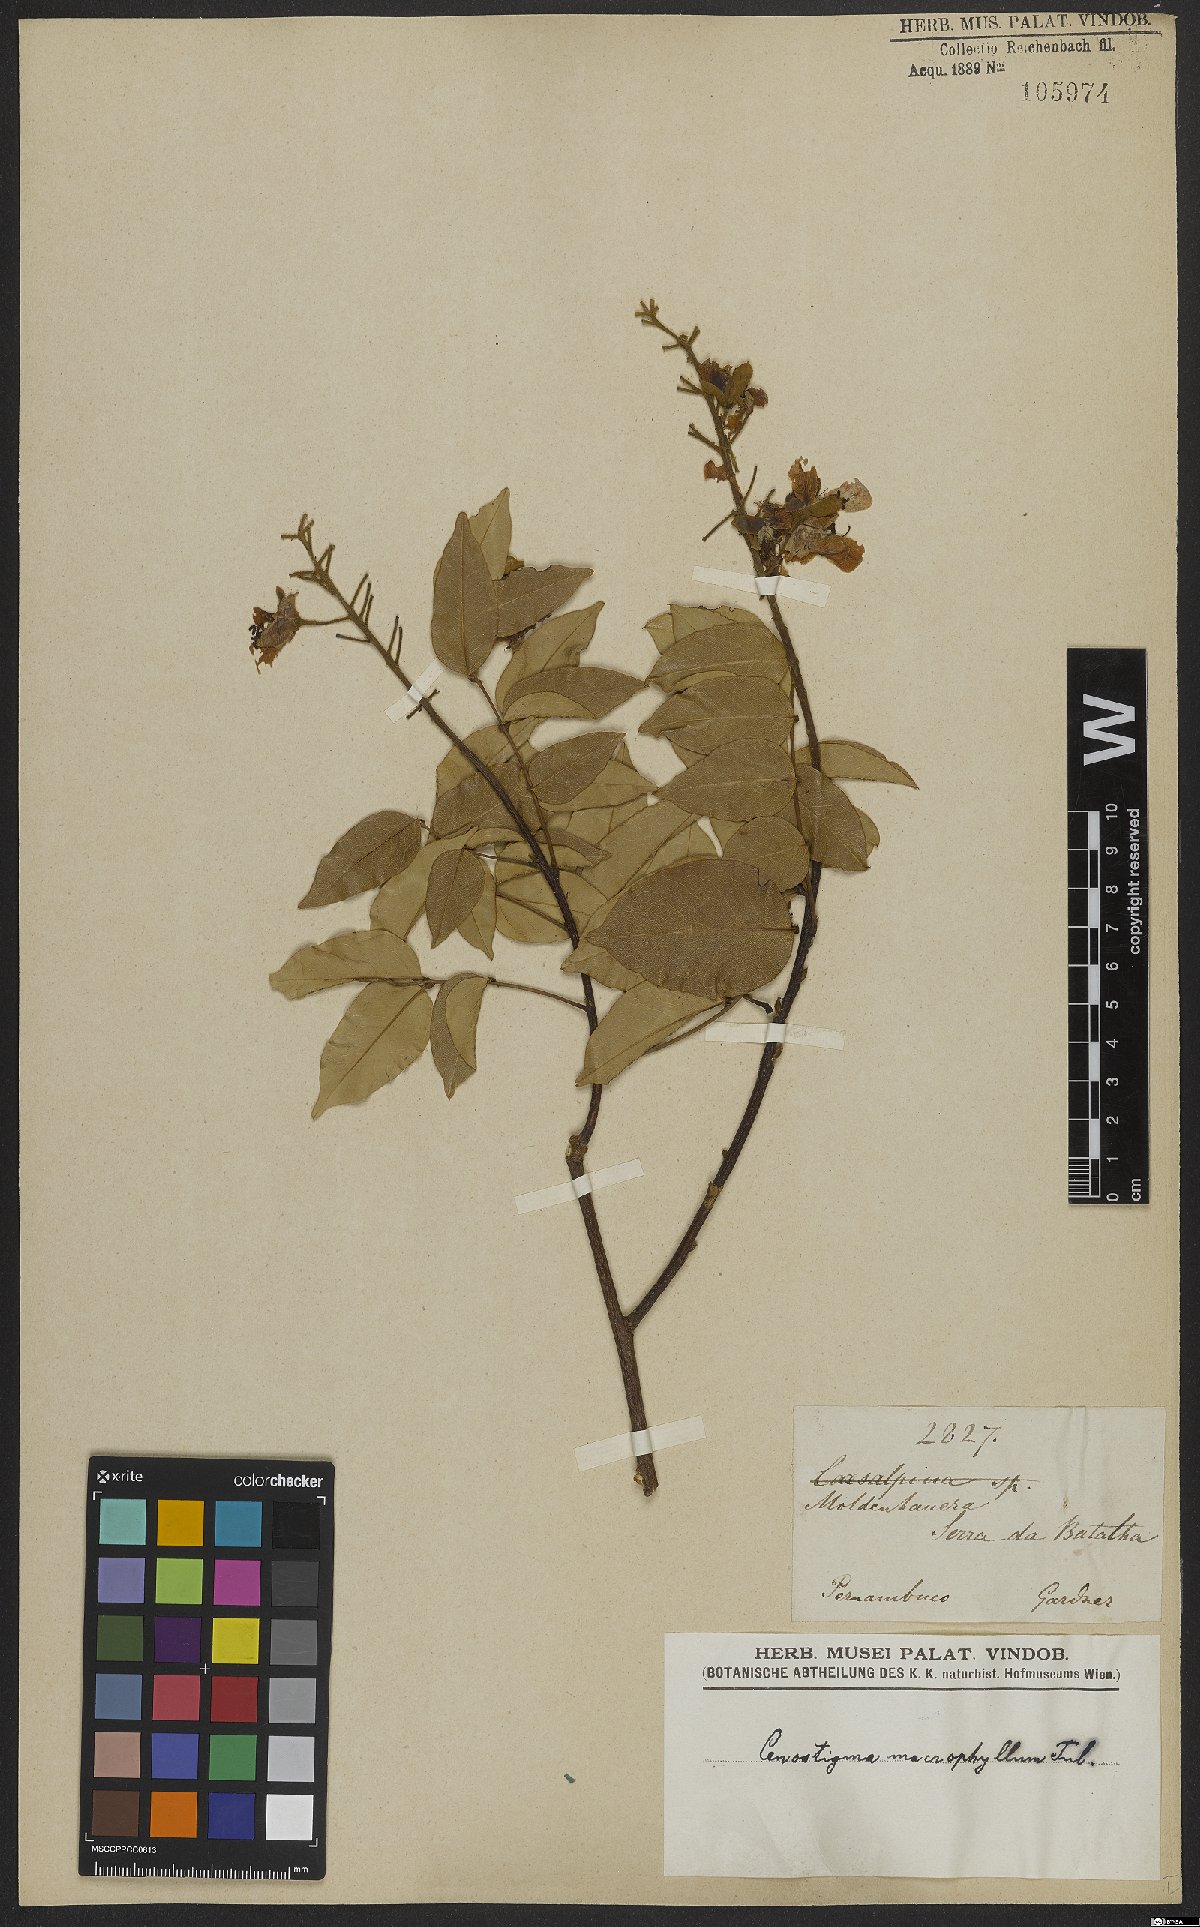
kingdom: Plantae
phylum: Tracheophyta
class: Magnoliopsida
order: Fabales
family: Fabaceae
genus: Cenostigma
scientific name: Cenostigma macrophyllum
